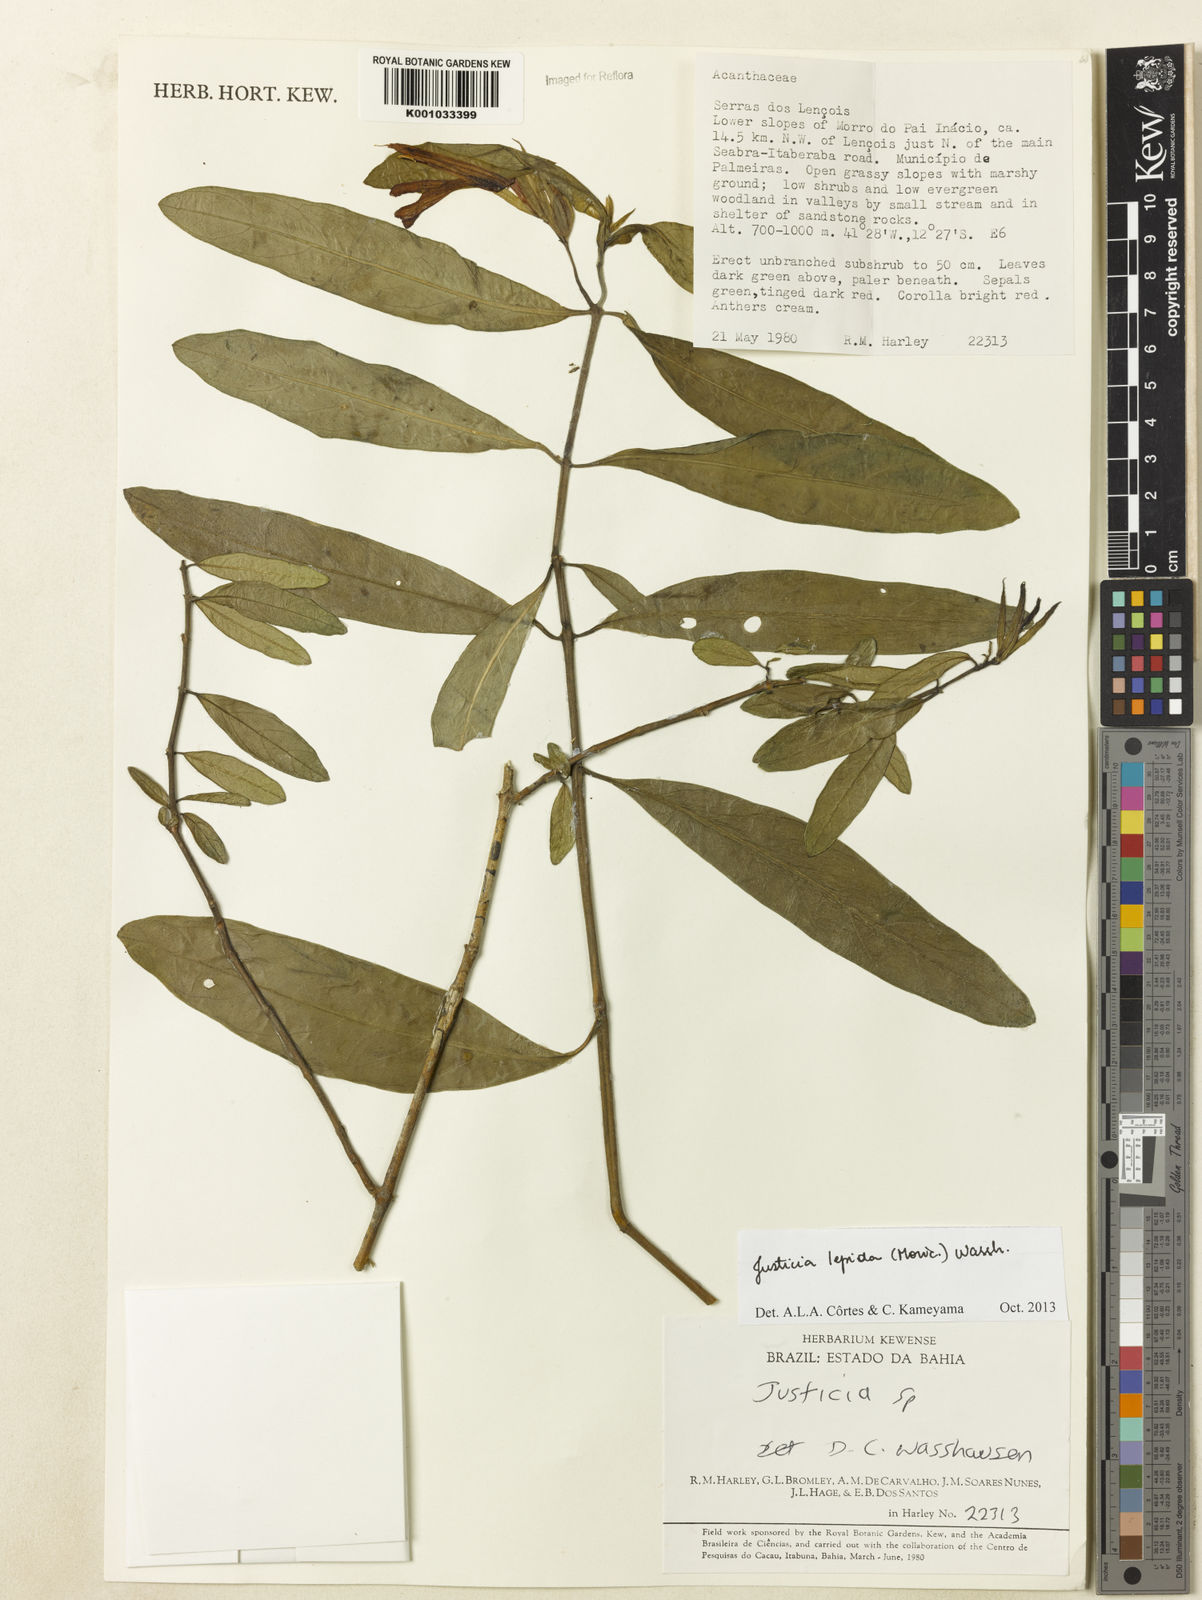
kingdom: Plantae
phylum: Tracheophyta
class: Magnoliopsida
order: Lamiales
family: Acanthaceae
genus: Justicia
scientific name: Justicia lepida
